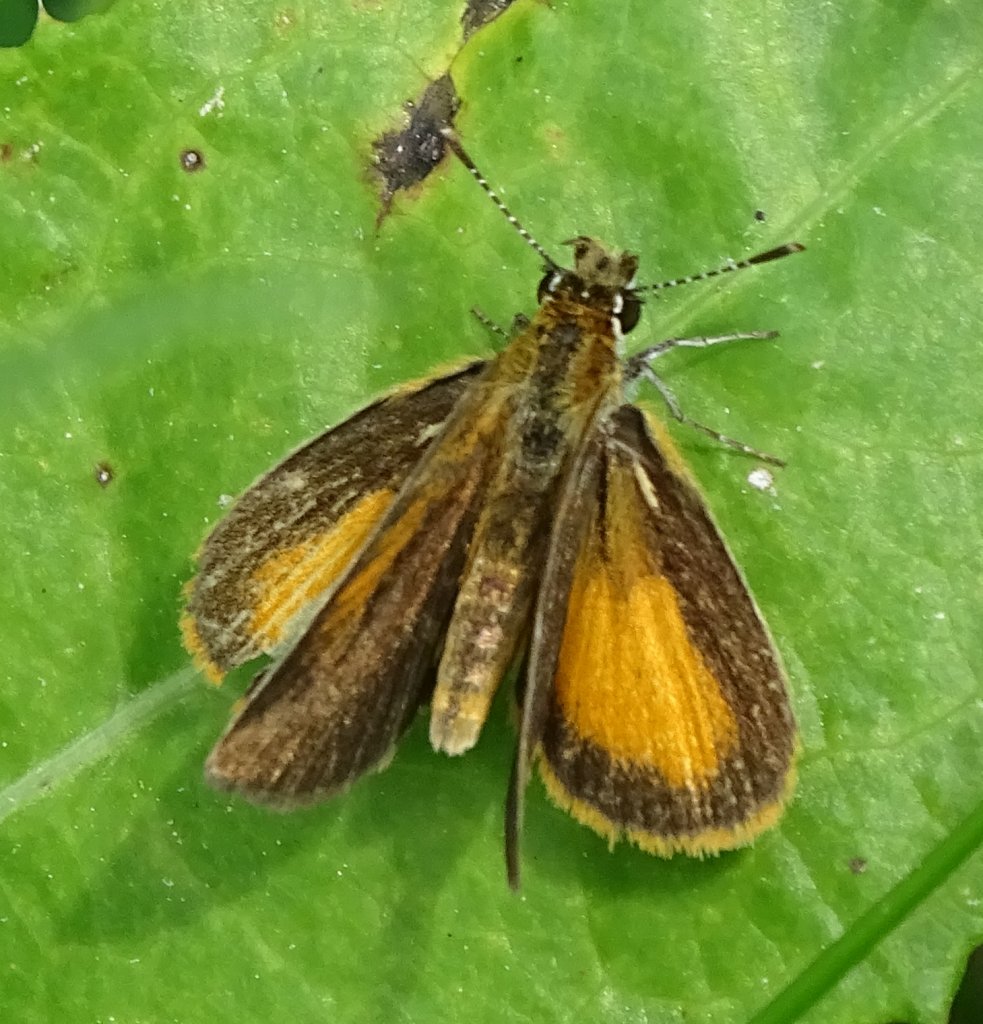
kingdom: Animalia
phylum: Arthropoda
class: Insecta
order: Lepidoptera
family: Hesperiidae
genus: Ancyloxypha
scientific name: Ancyloxypha numitor
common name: Least Skipper
